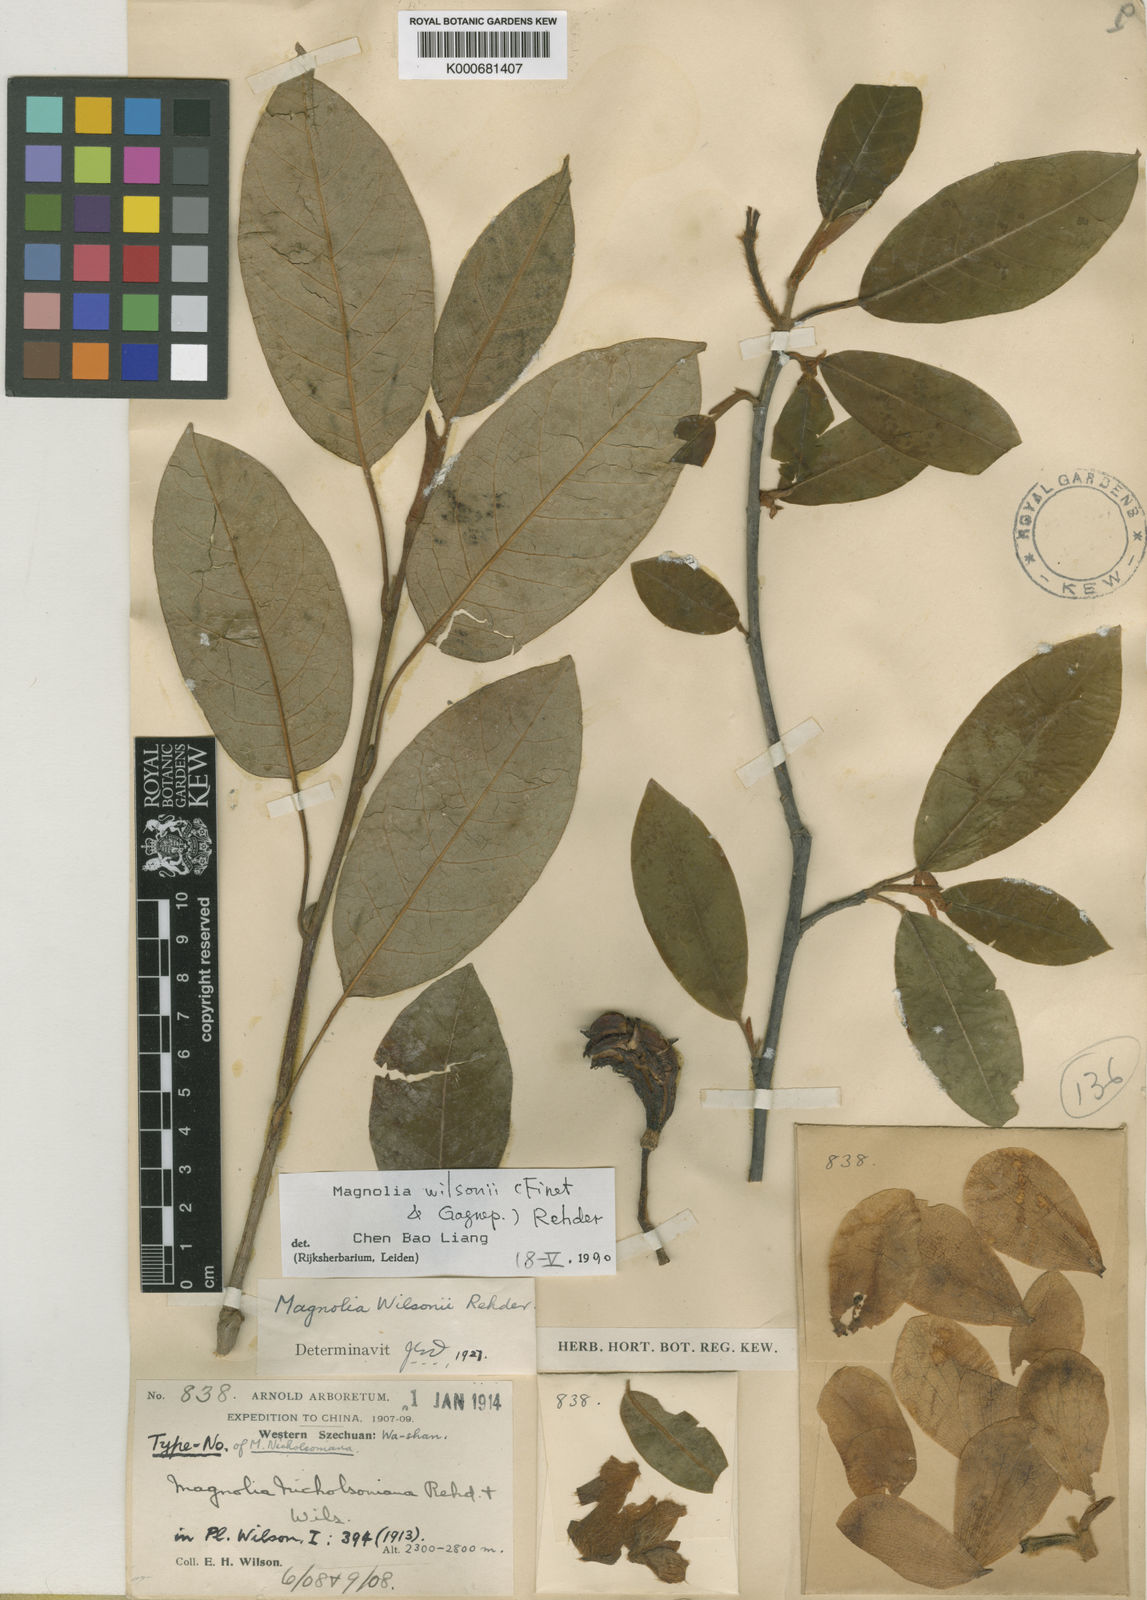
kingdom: Plantae
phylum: Tracheophyta
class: Magnoliopsida
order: Magnoliales
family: Magnoliaceae
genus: Magnolia
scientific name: Magnolia wilsonii
